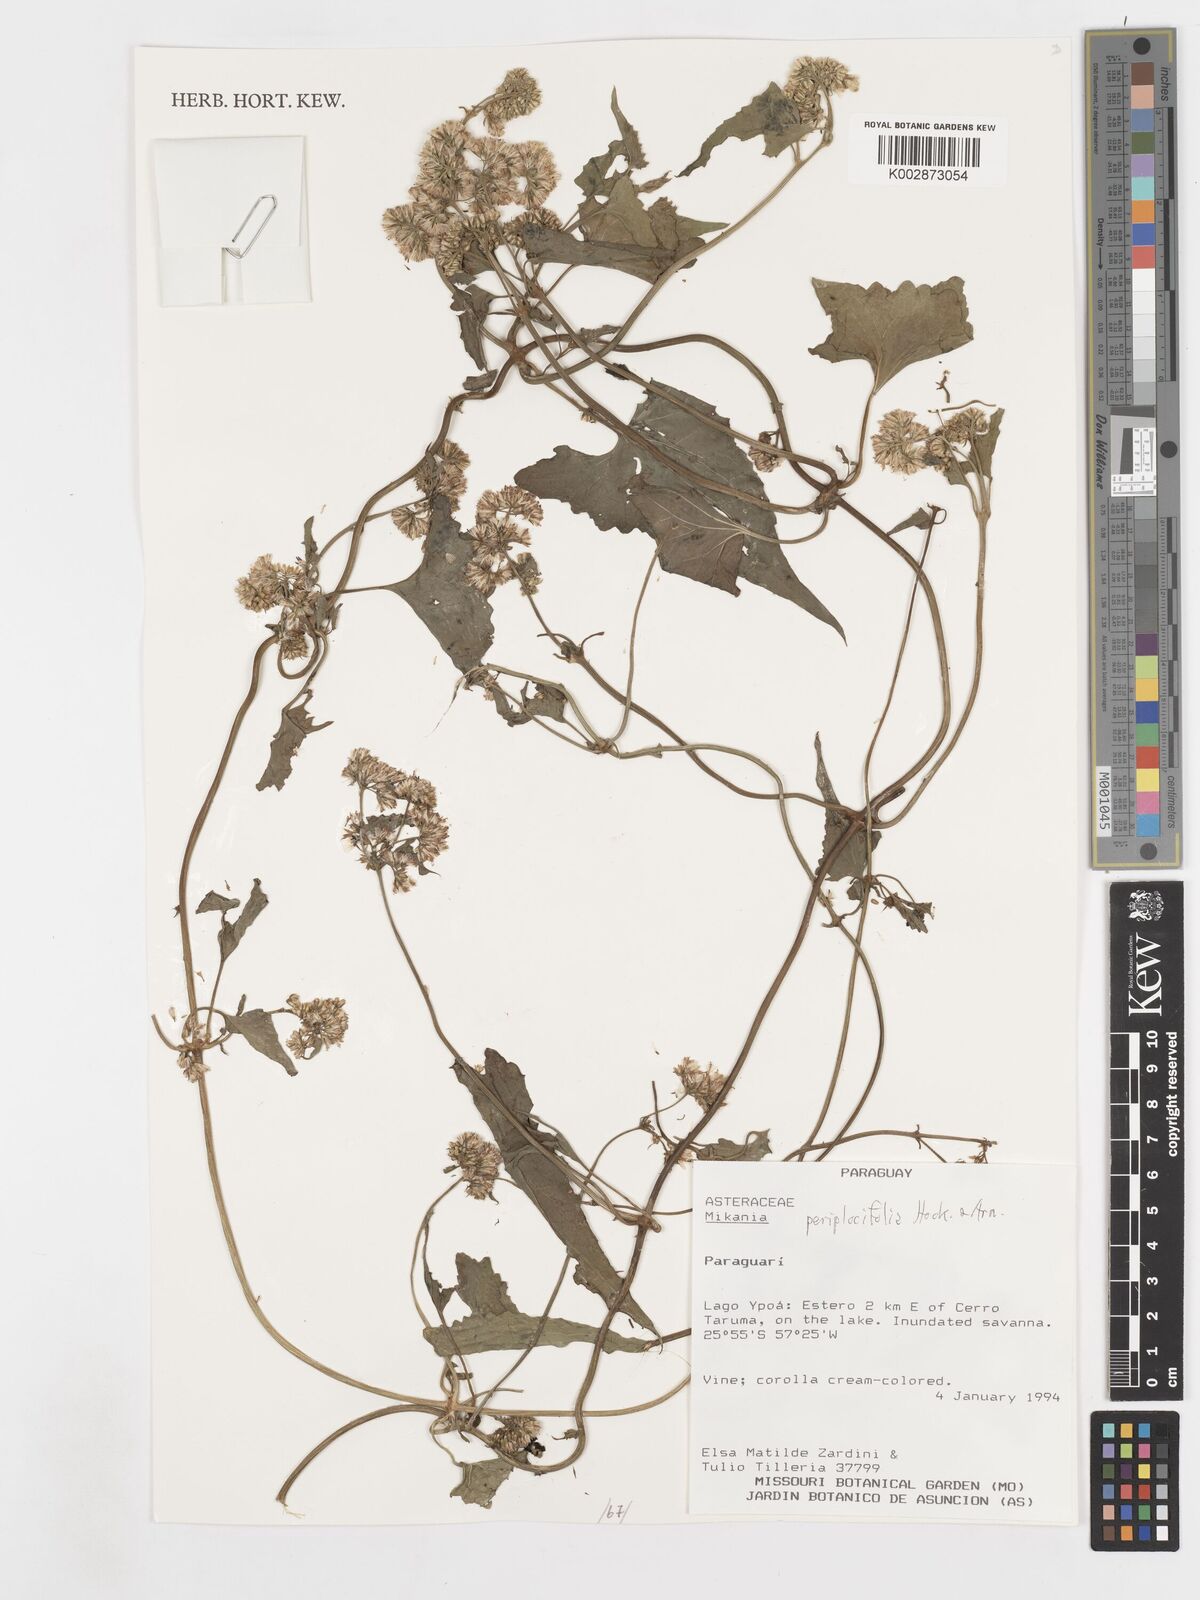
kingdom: Plantae
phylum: Tracheophyta
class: Magnoliopsida
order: Asterales
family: Asteraceae
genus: Mikania
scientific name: Mikania periplocifolia
